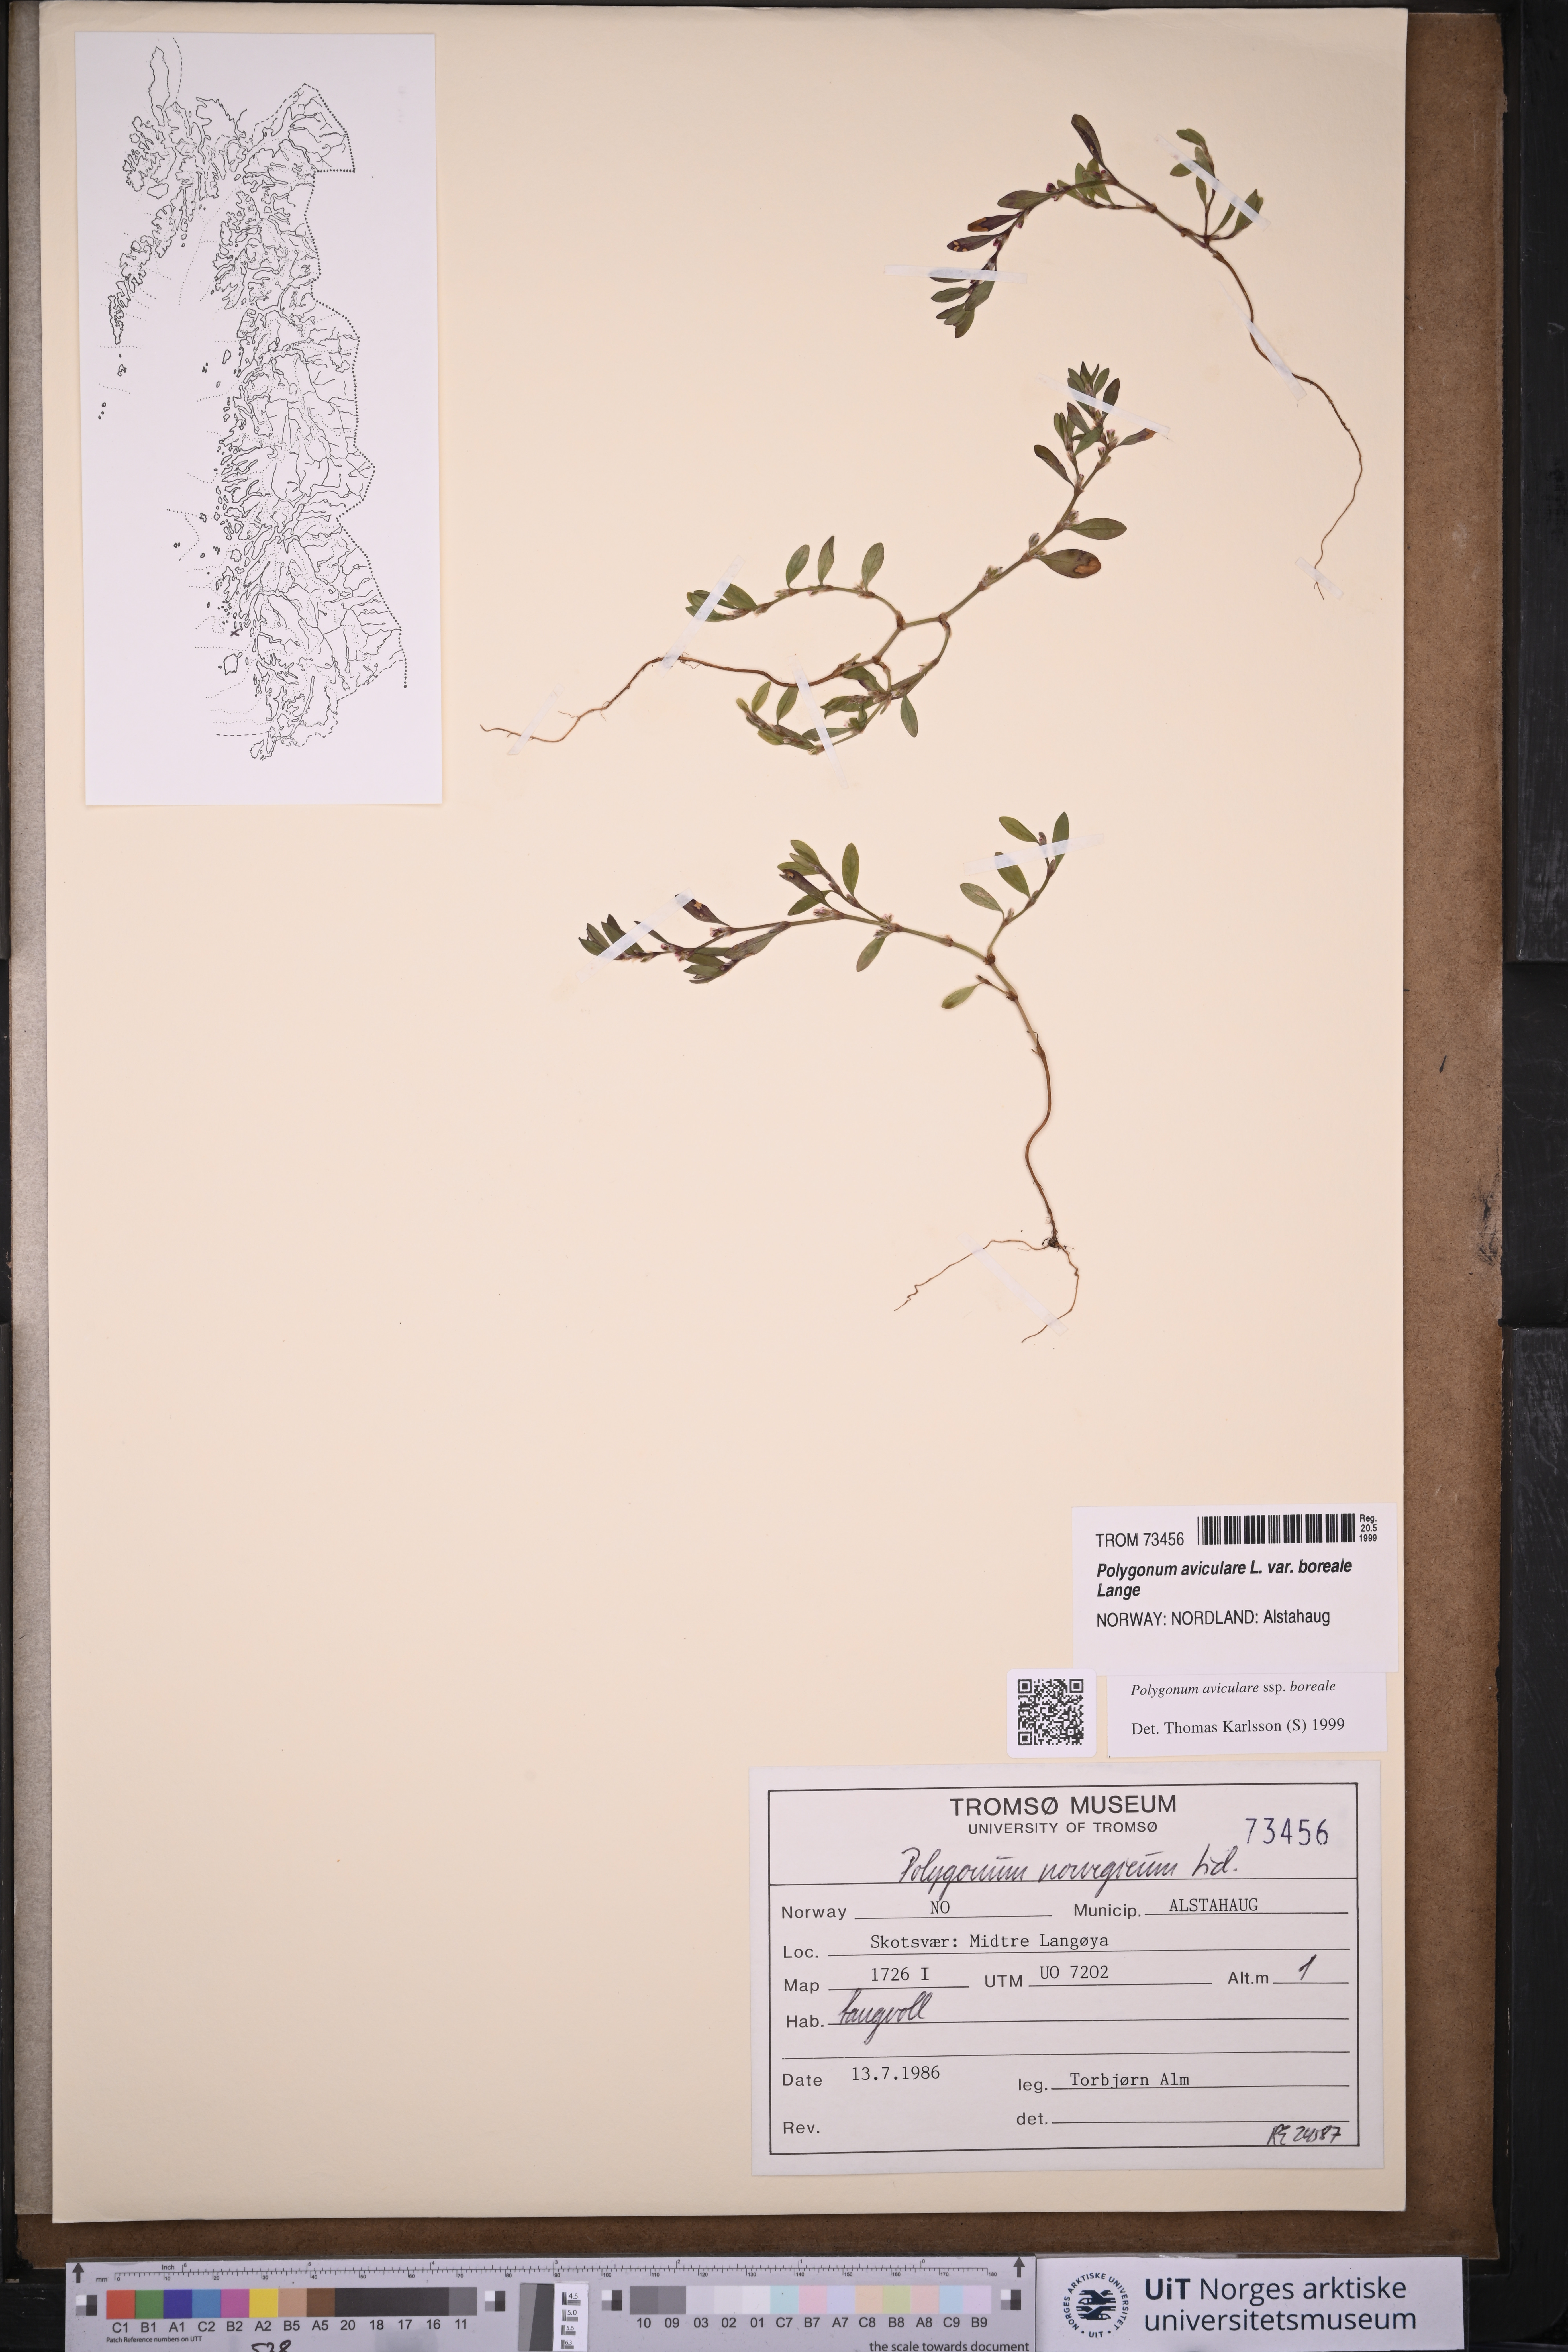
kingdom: Plantae
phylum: Tracheophyta
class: Magnoliopsida
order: Caryophyllales
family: Polygonaceae
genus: Polygonum
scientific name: Polygonum boreale
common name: Northern knotgrass
